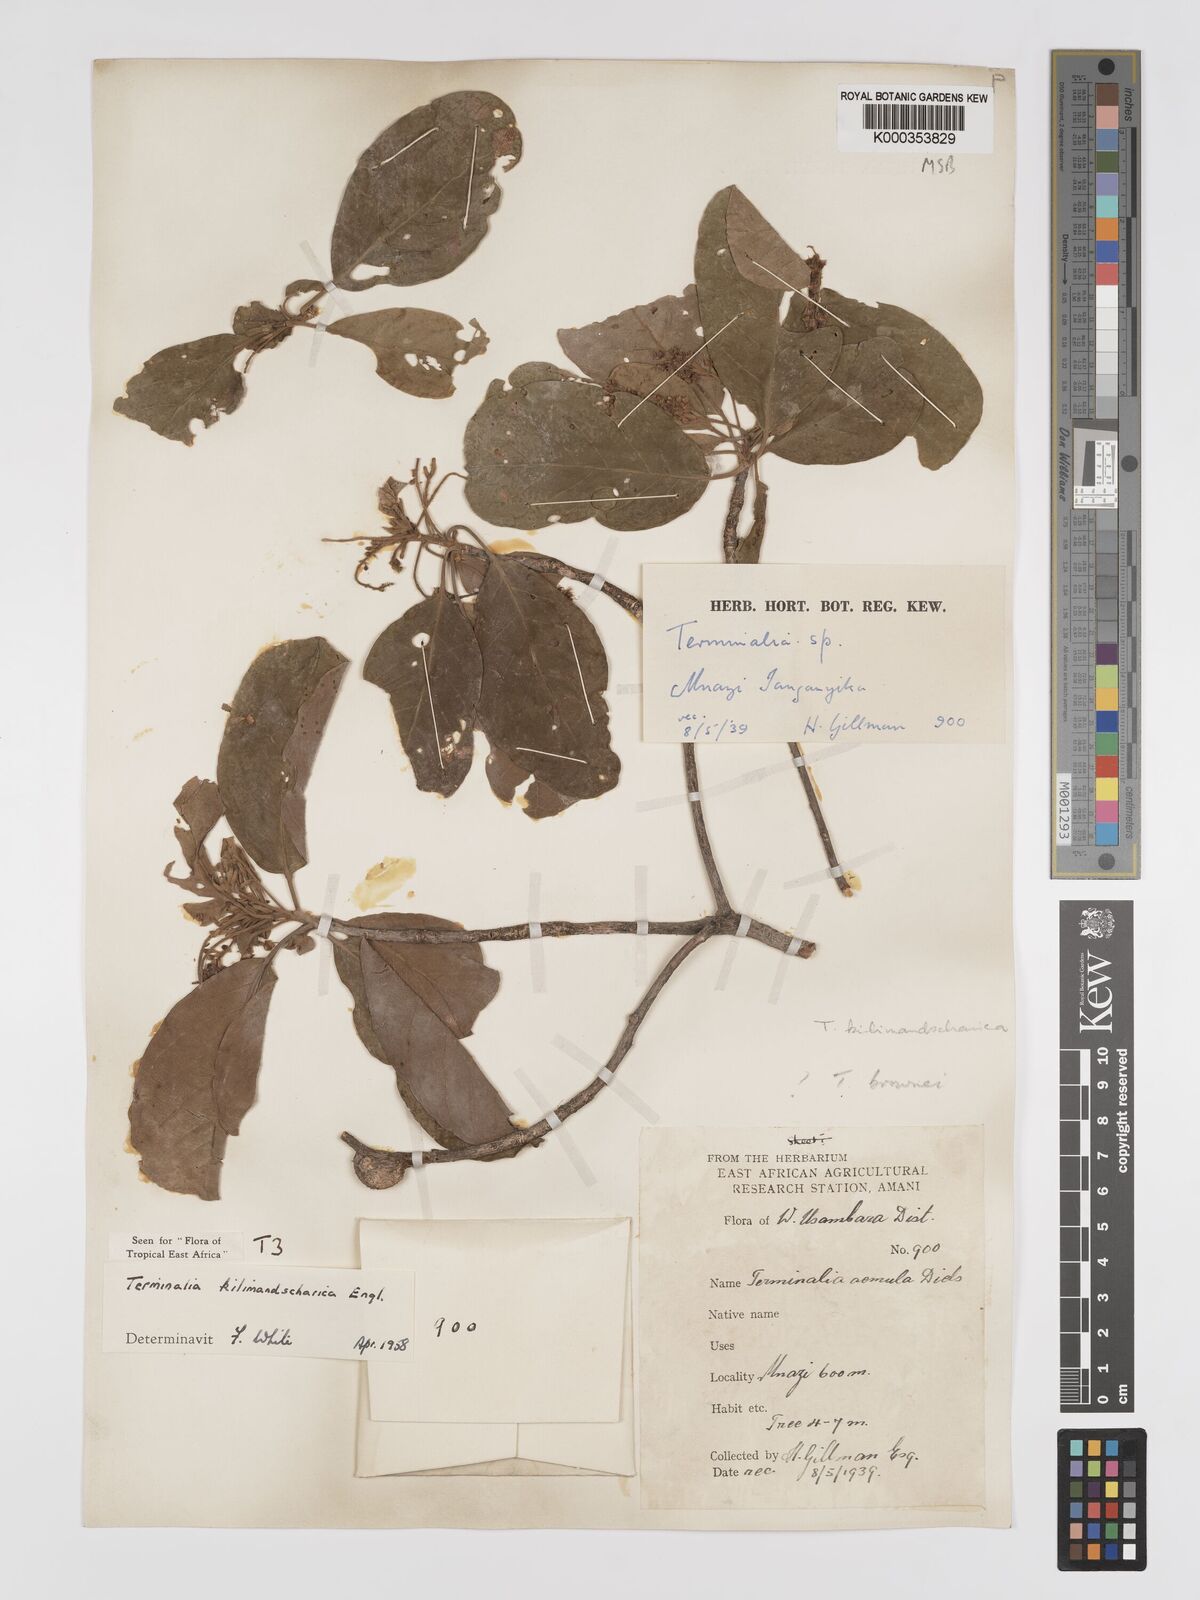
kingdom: Plantae
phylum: Tracheophyta
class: Magnoliopsida
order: Myrtales
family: Combretaceae
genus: Terminalia
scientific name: Terminalia kilimandscharica
